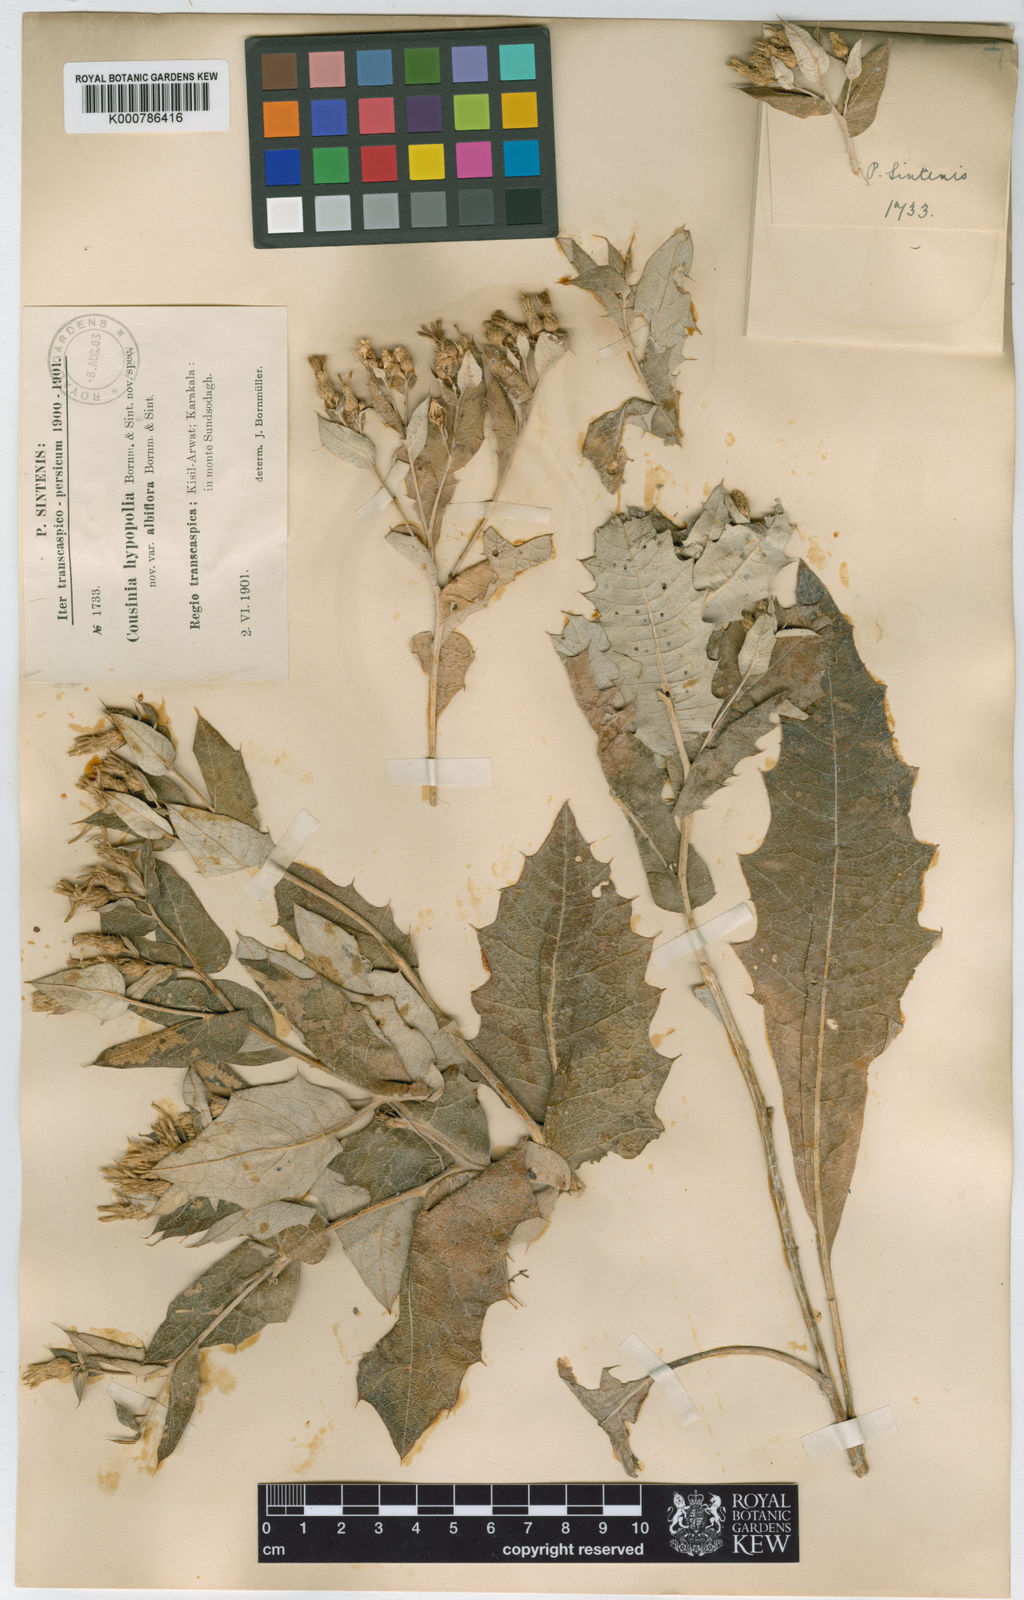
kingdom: Plantae
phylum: Tracheophyta
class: Magnoliopsida
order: Asterales
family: Asteraceae
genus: Cousinia
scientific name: Cousinia albiflora
